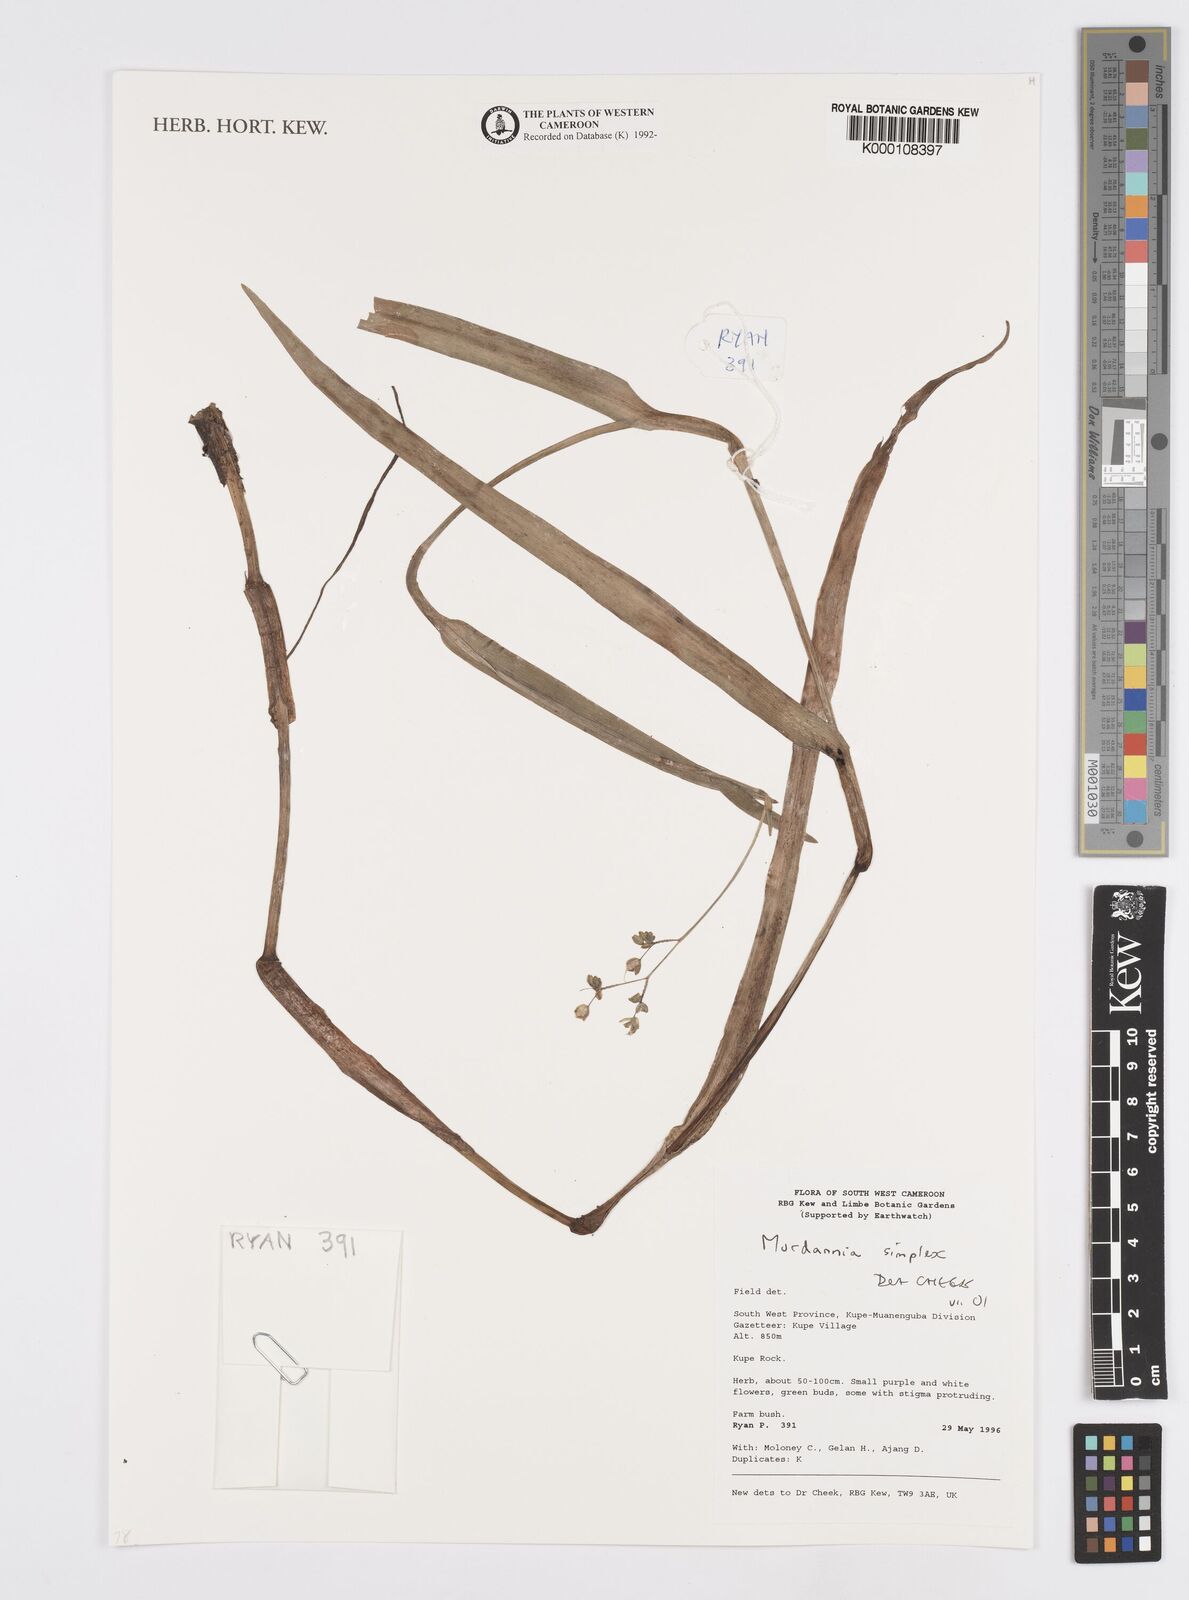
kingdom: Plantae
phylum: Tracheophyta
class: Liliopsida
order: Commelinales
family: Commelinaceae
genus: Murdannia
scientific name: Murdannia simplex
